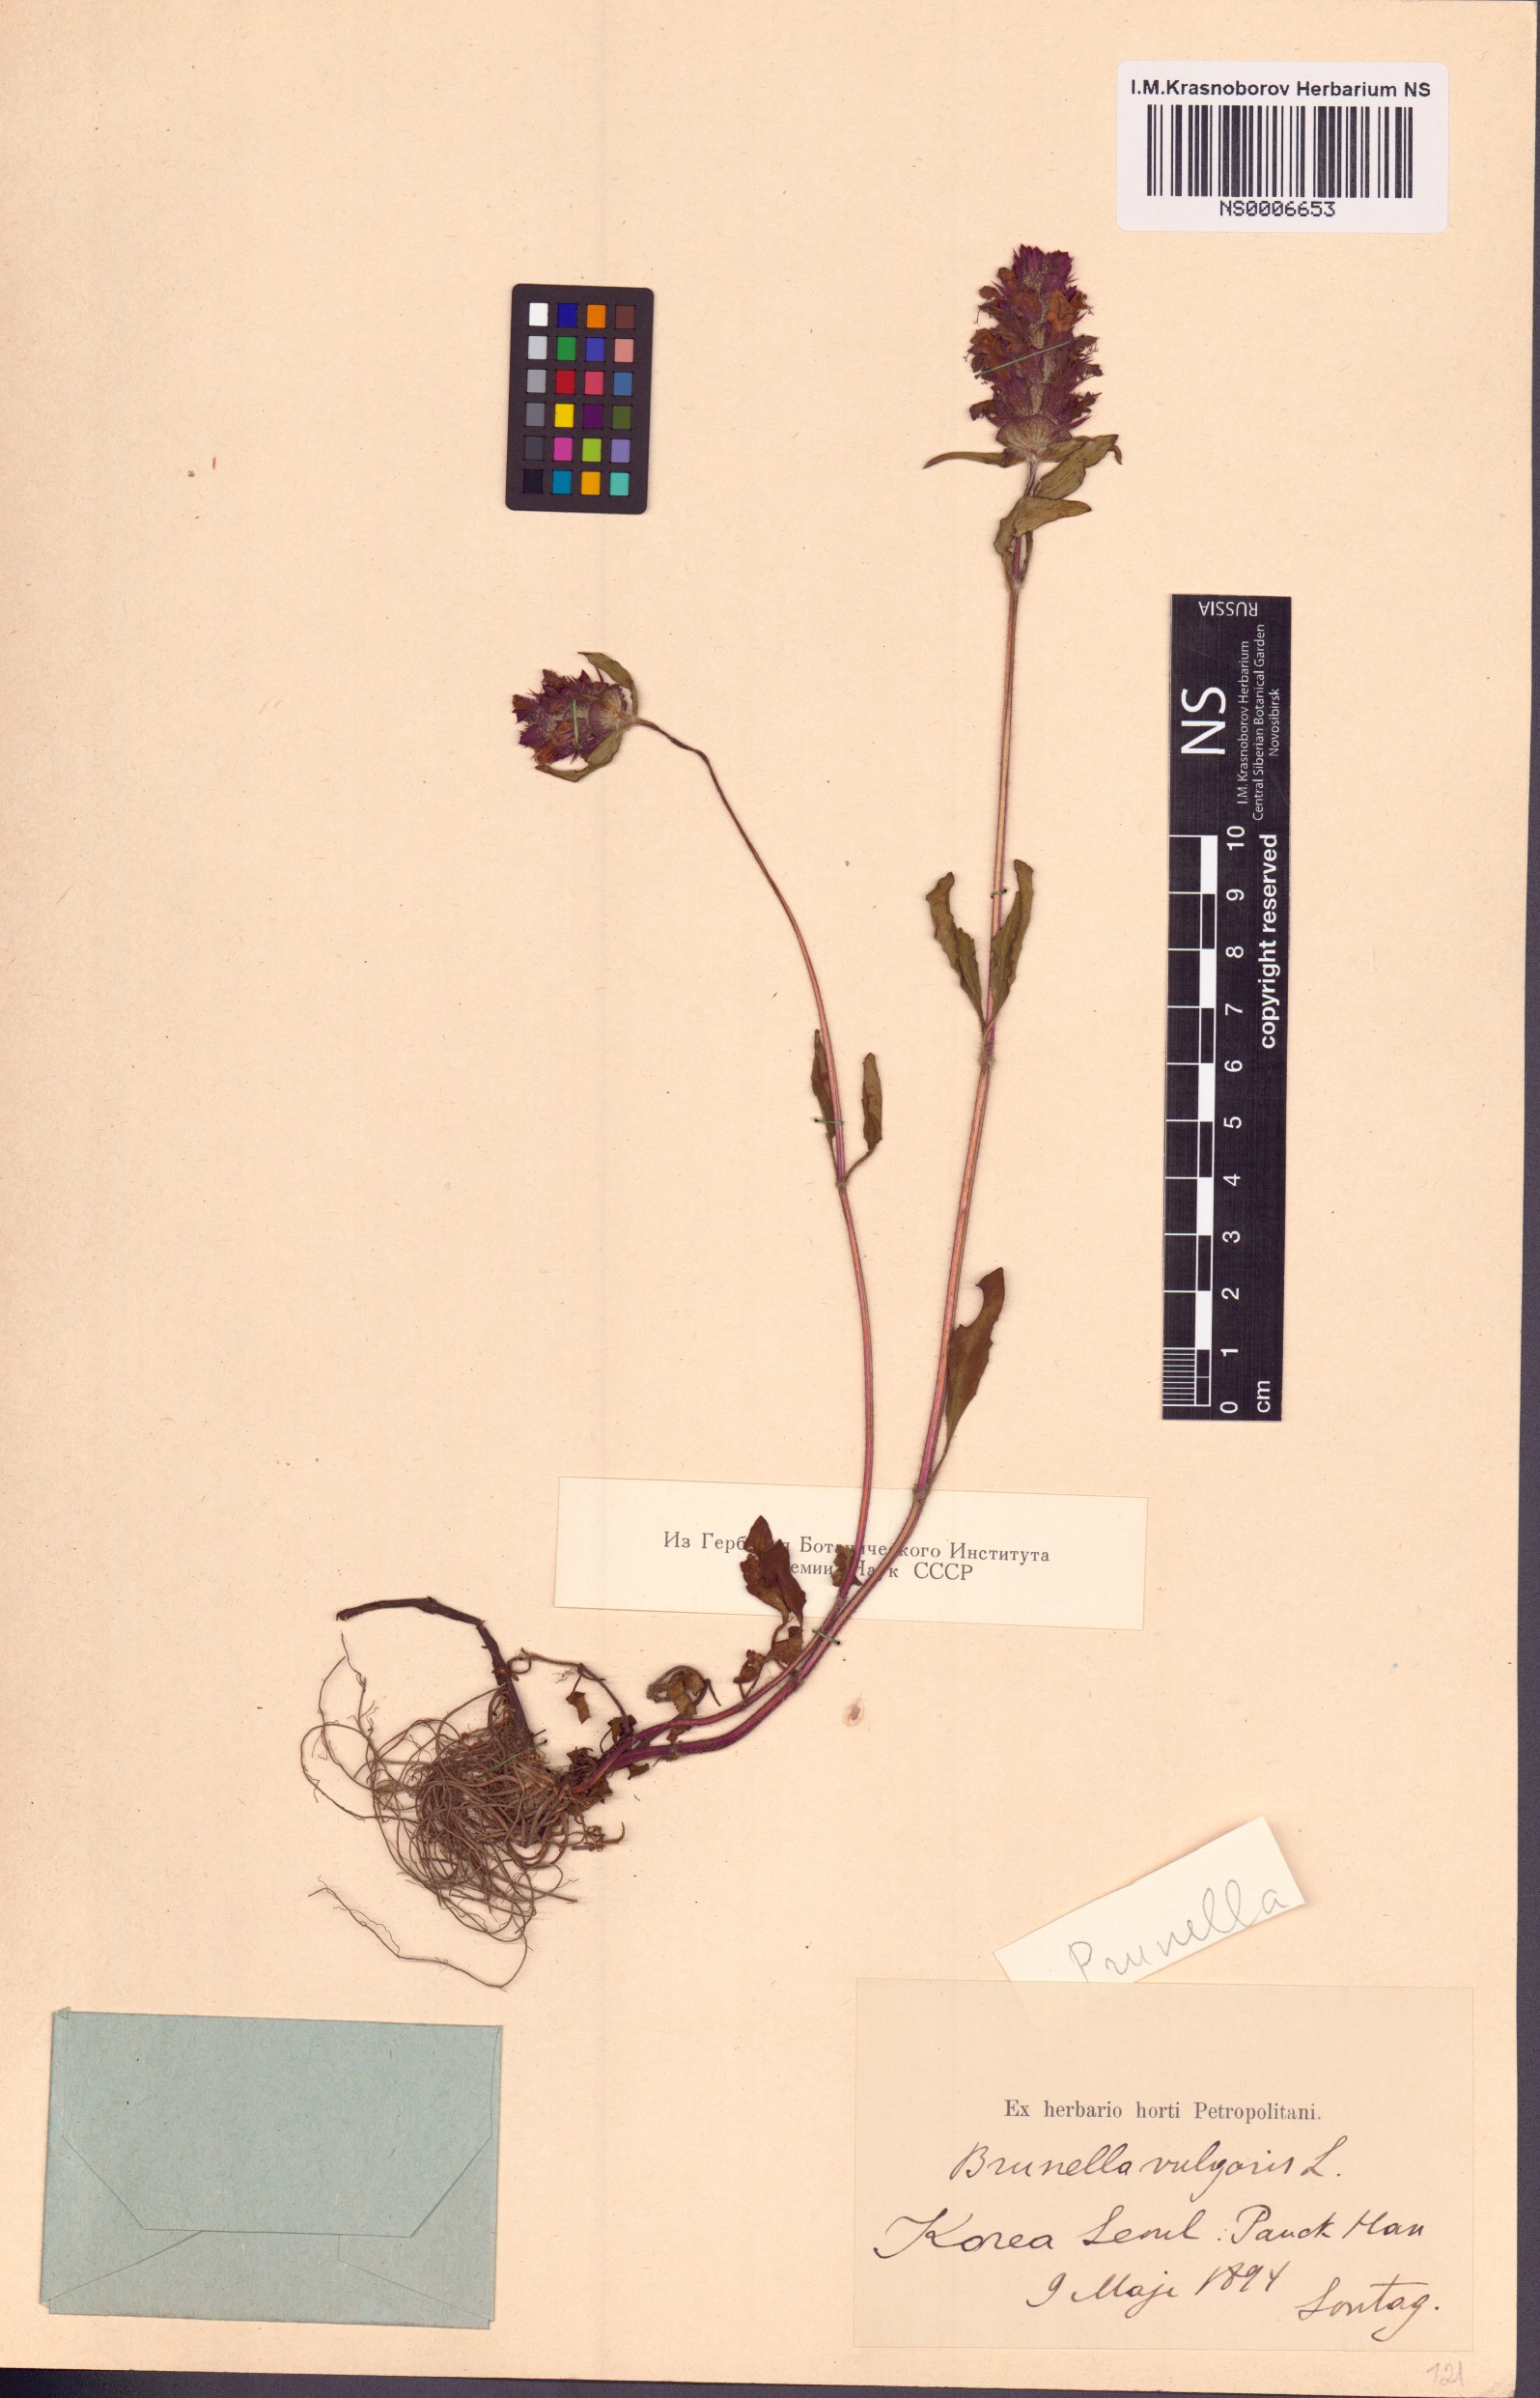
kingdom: Plantae
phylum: Tracheophyta
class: Magnoliopsida
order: Lamiales
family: Lamiaceae
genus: Prunella
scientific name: Prunella vulgaris
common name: Heal-all
